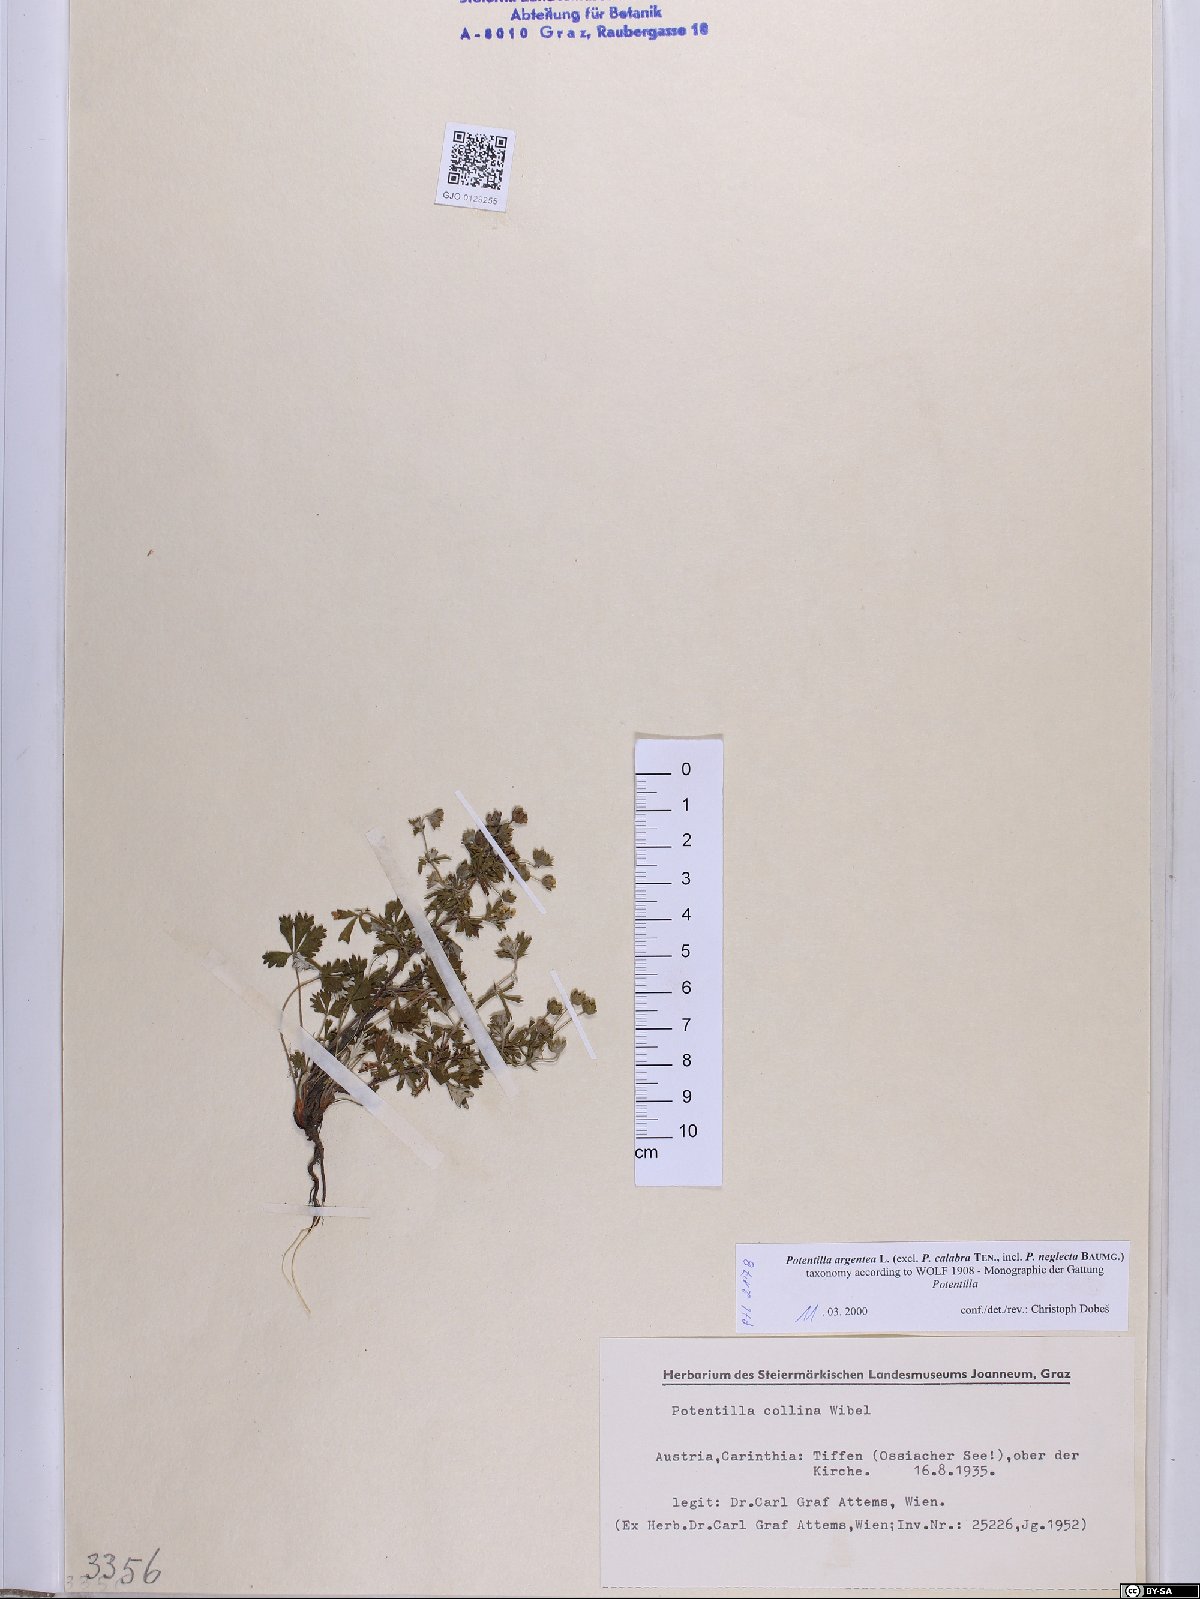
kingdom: Plantae
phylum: Tracheophyta
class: Magnoliopsida
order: Rosales
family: Rosaceae
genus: Potentilla
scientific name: Potentilla argentea
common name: Hoary cinquefoil
